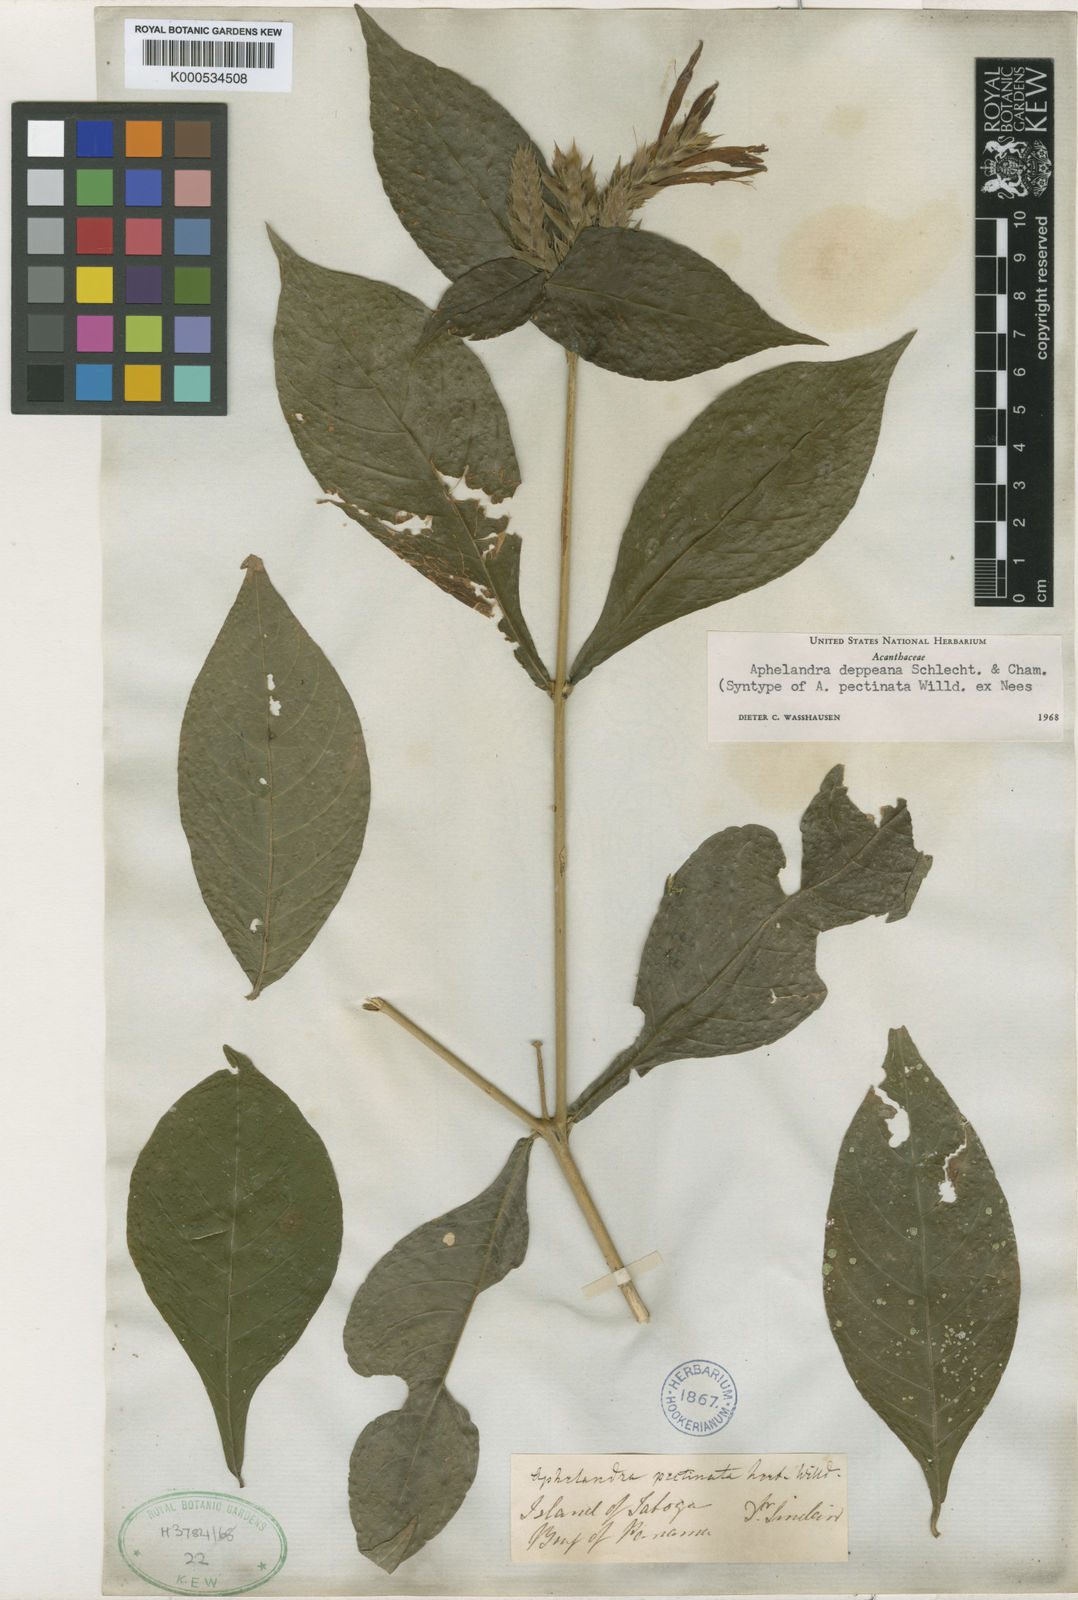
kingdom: Plantae
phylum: Tracheophyta
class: Magnoliopsida
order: Lamiales
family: Acanthaceae
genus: Aphelandra
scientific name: Aphelandra scabra
